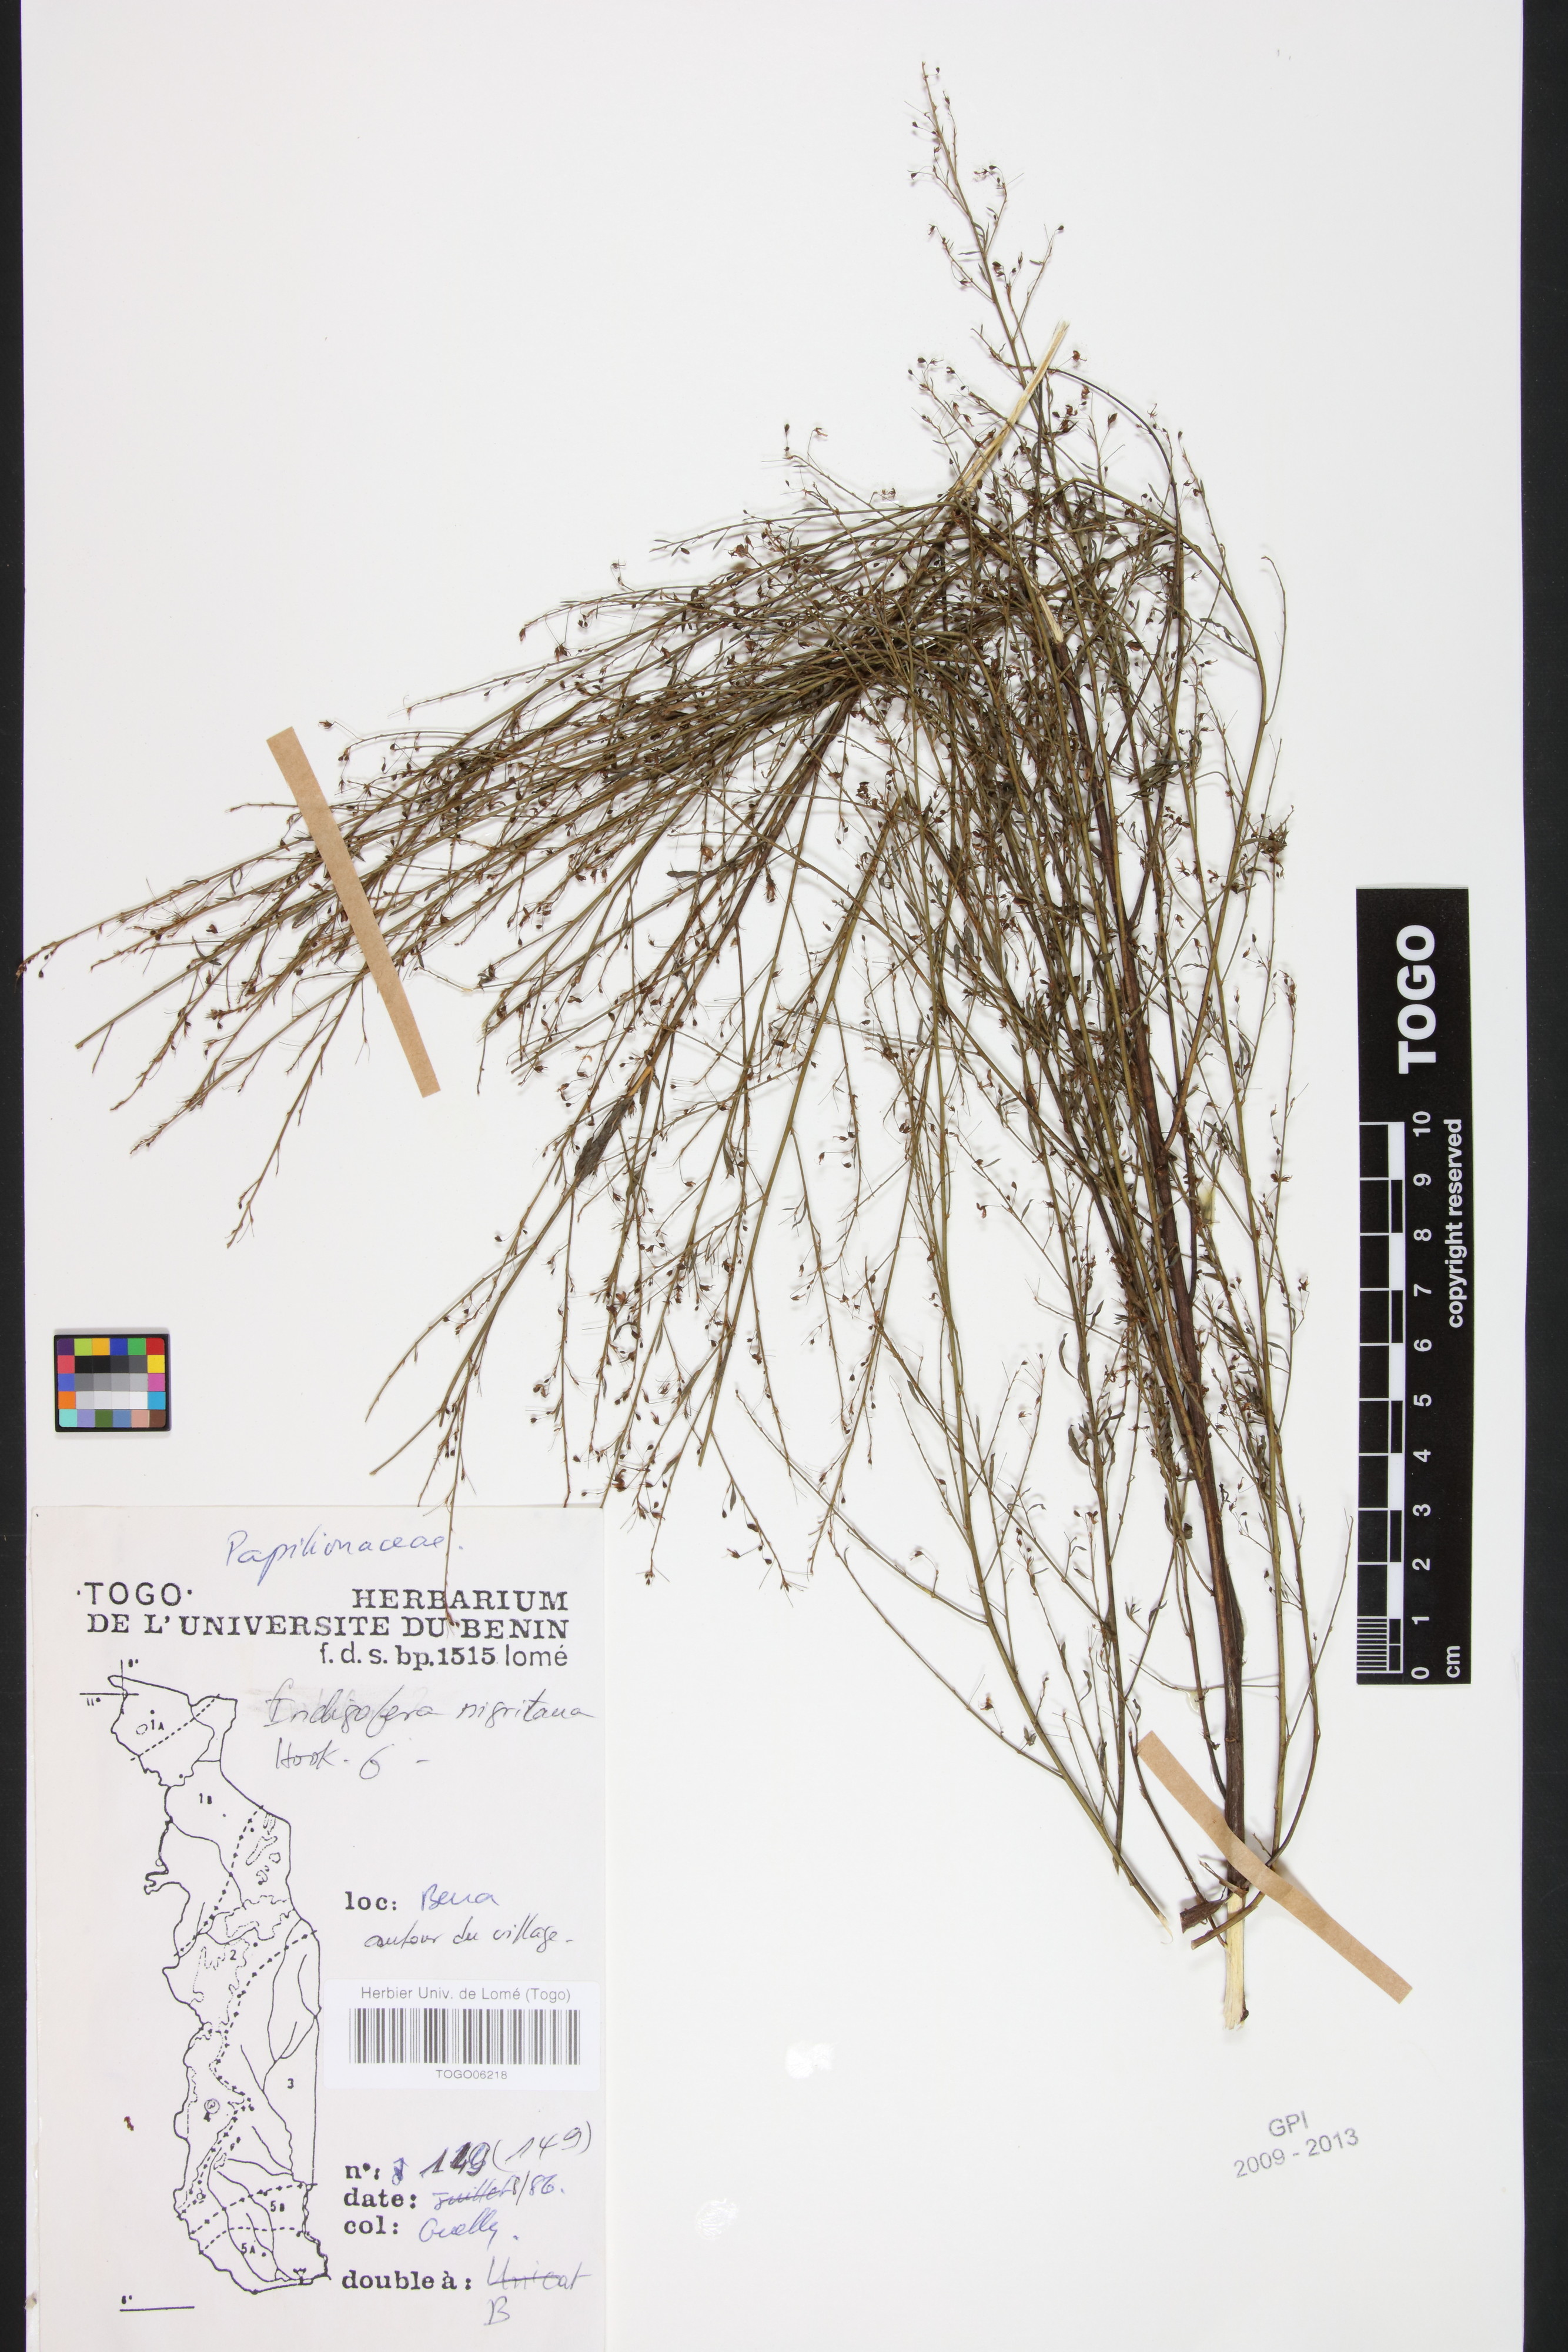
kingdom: Plantae
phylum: Tracheophyta
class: Magnoliopsida
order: Fabales
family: Fabaceae
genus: Indigofera
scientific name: Indigofera nigritana
